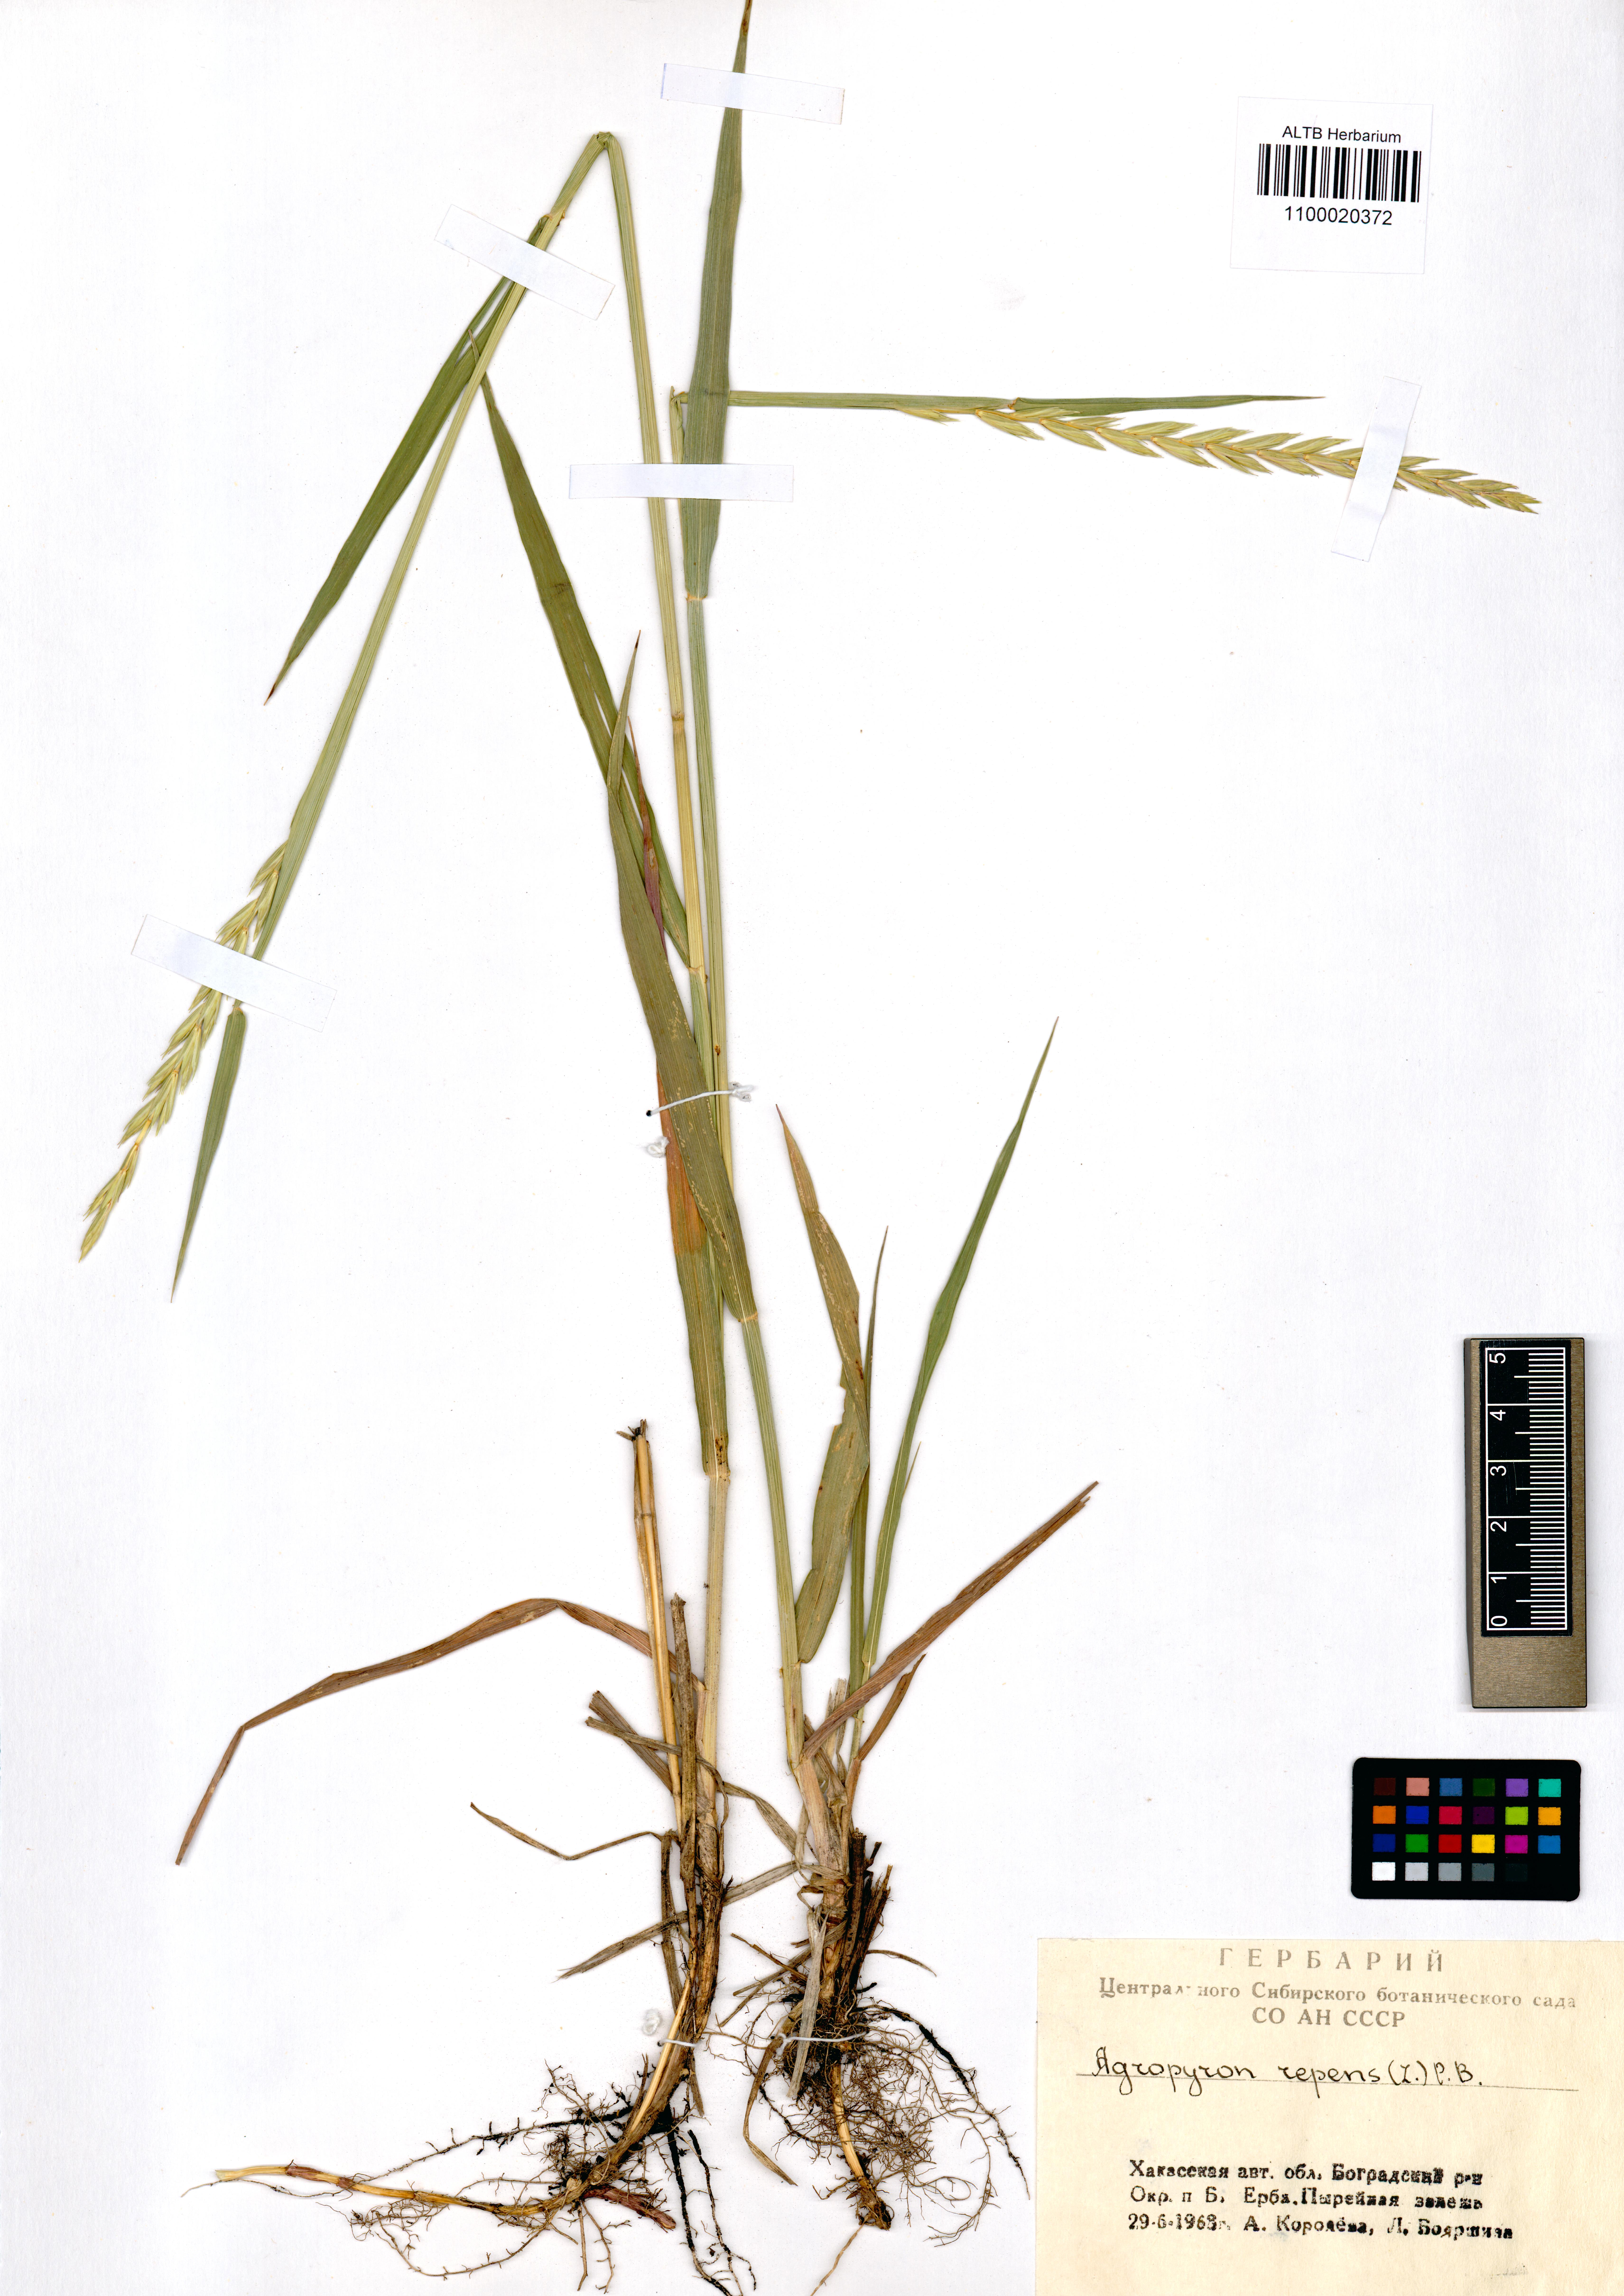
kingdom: Plantae
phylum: Tracheophyta
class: Liliopsida
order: Poales
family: Poaceae
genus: Elymus
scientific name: Elymus repens
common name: Quackgrass
